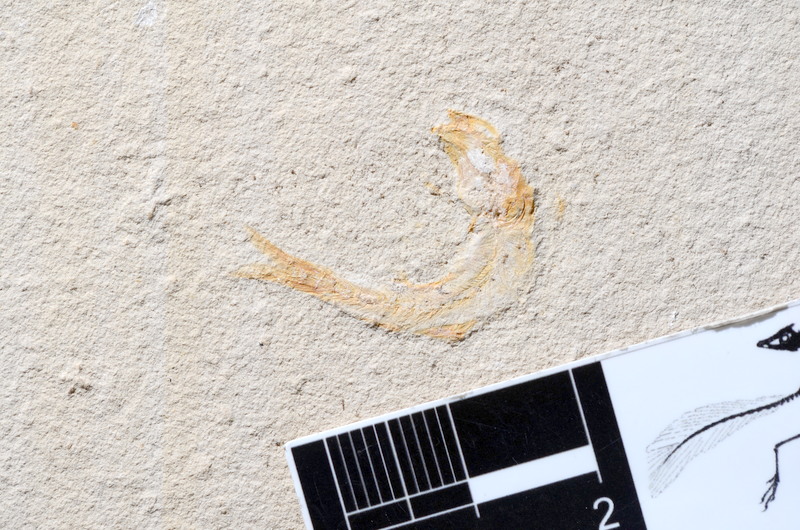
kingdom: Animalia
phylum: Chordata
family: Ascalaboidae
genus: Tharsis
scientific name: Tharsis dubius
